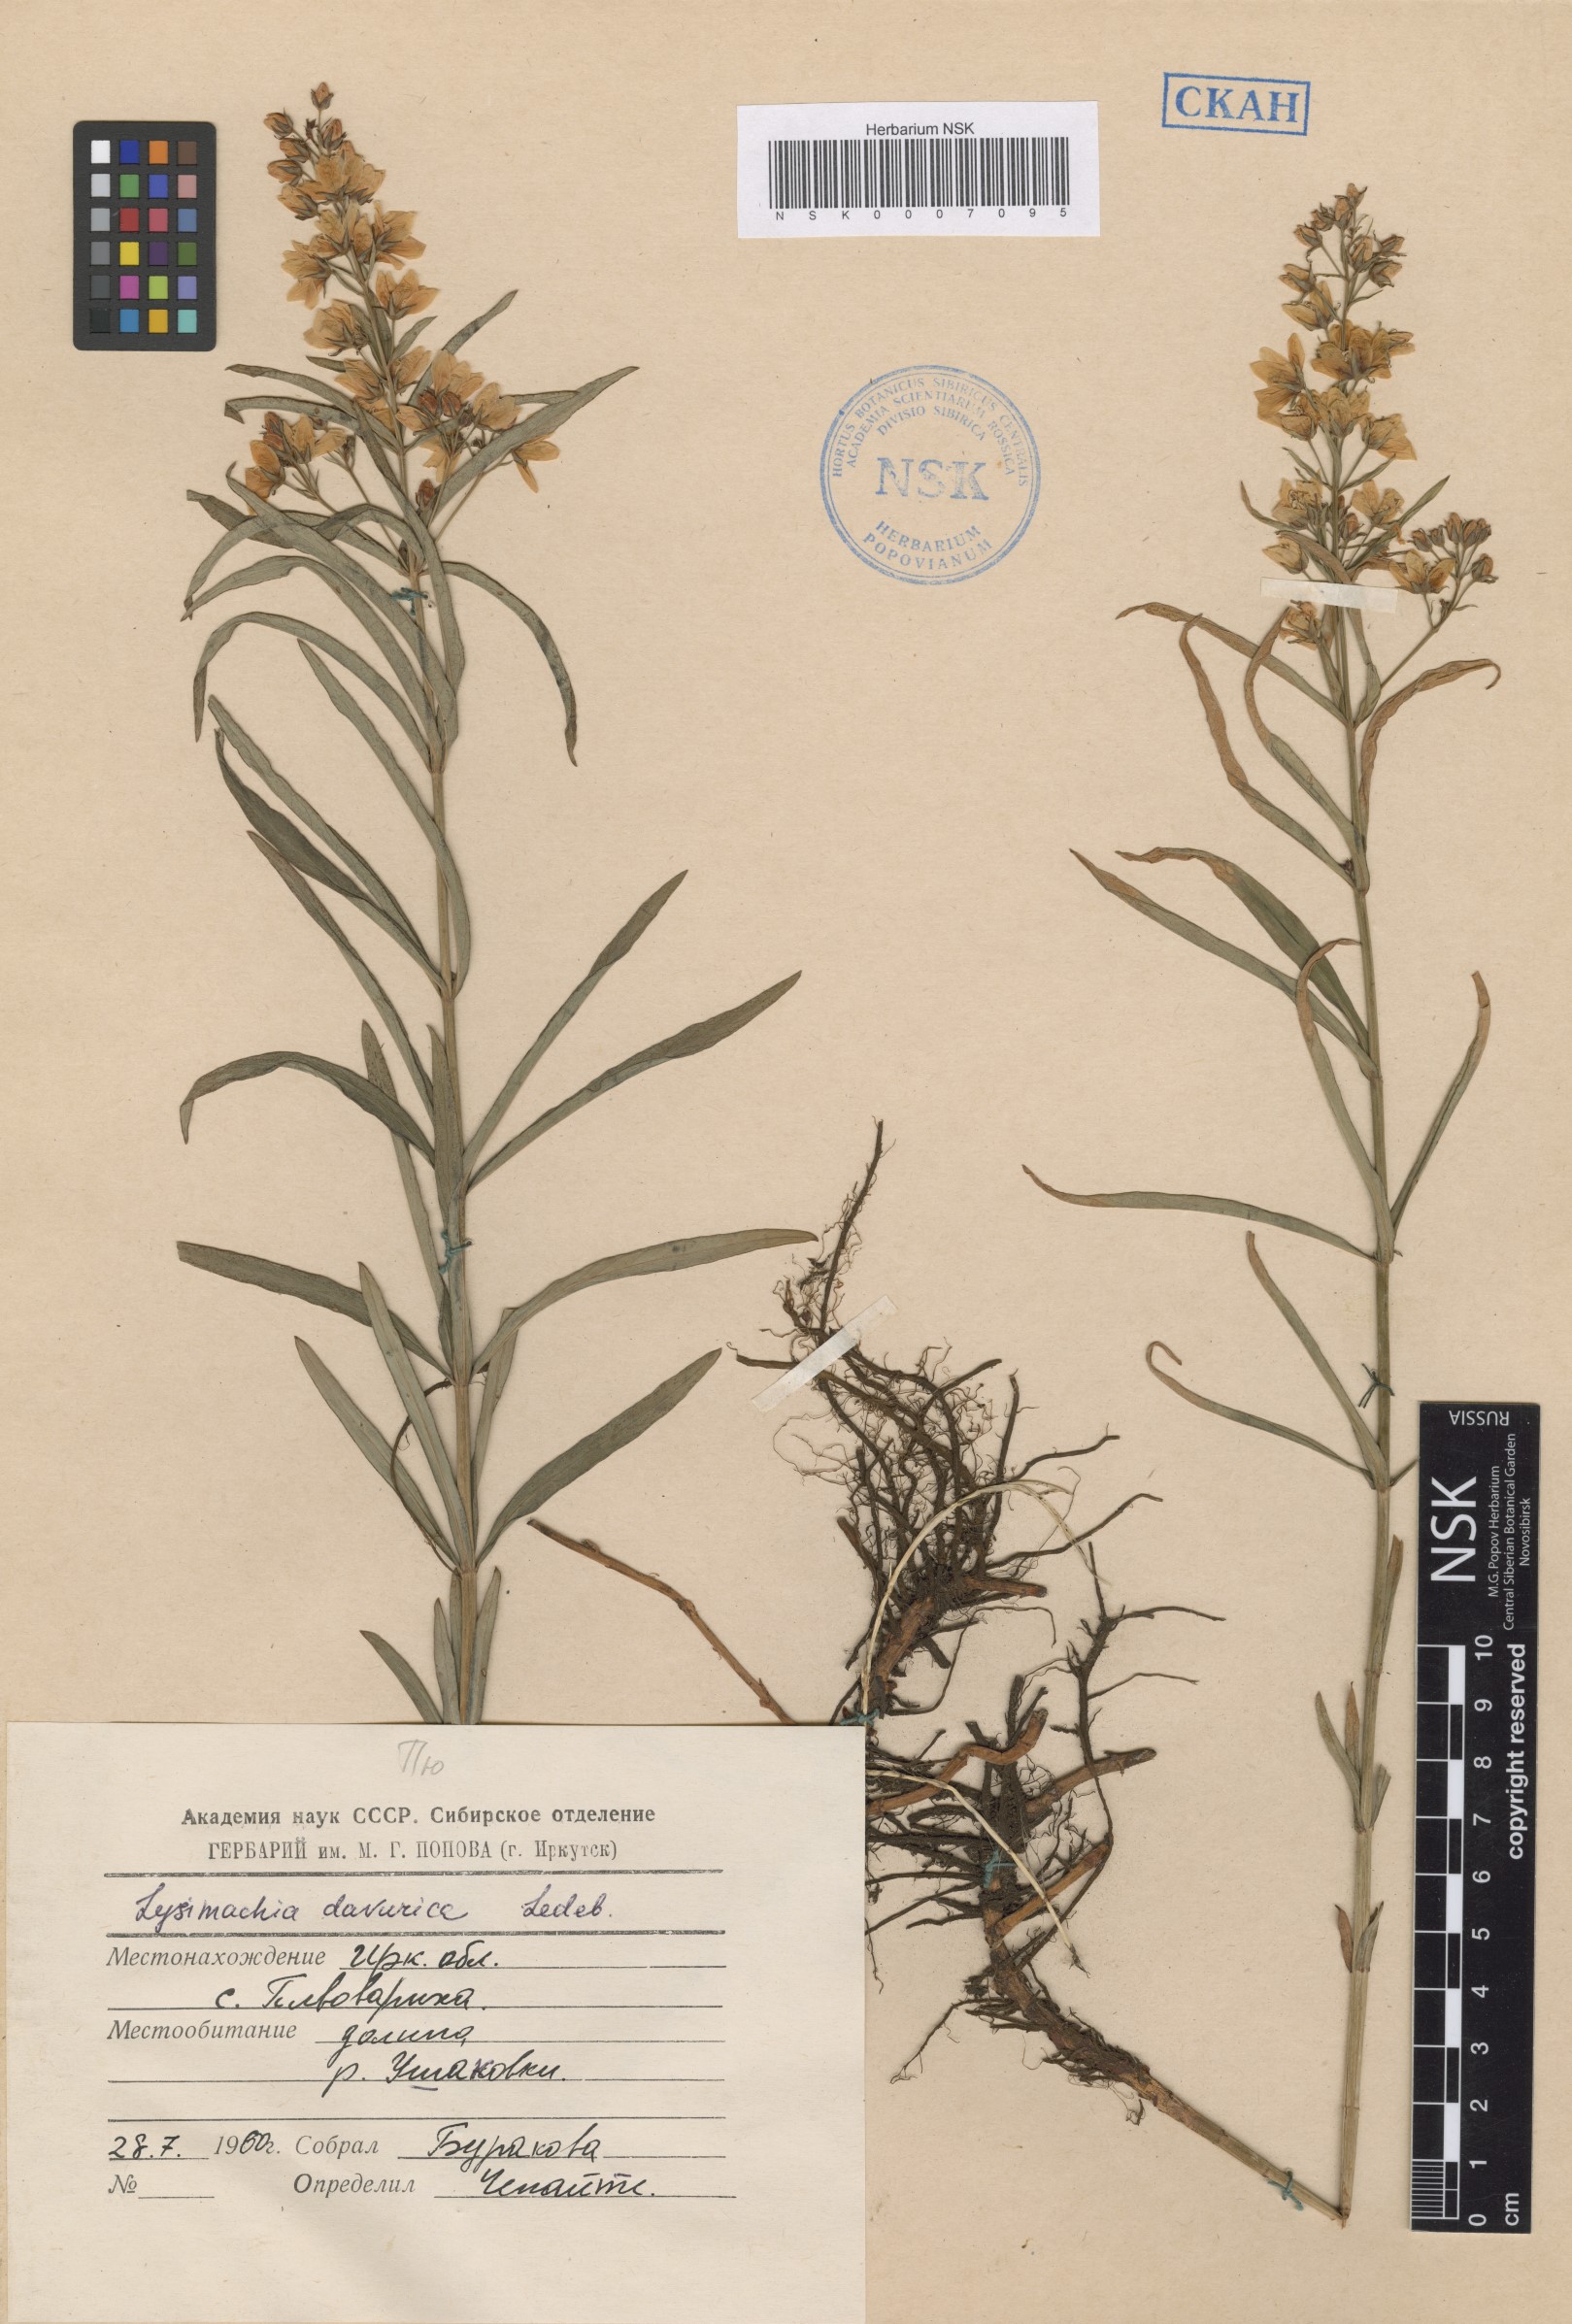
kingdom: Plantae
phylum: Tracheophyta
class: Magnoliopsida
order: Ericales
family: Primulaceae
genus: Lysimachia
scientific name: Lysimachia davurica
